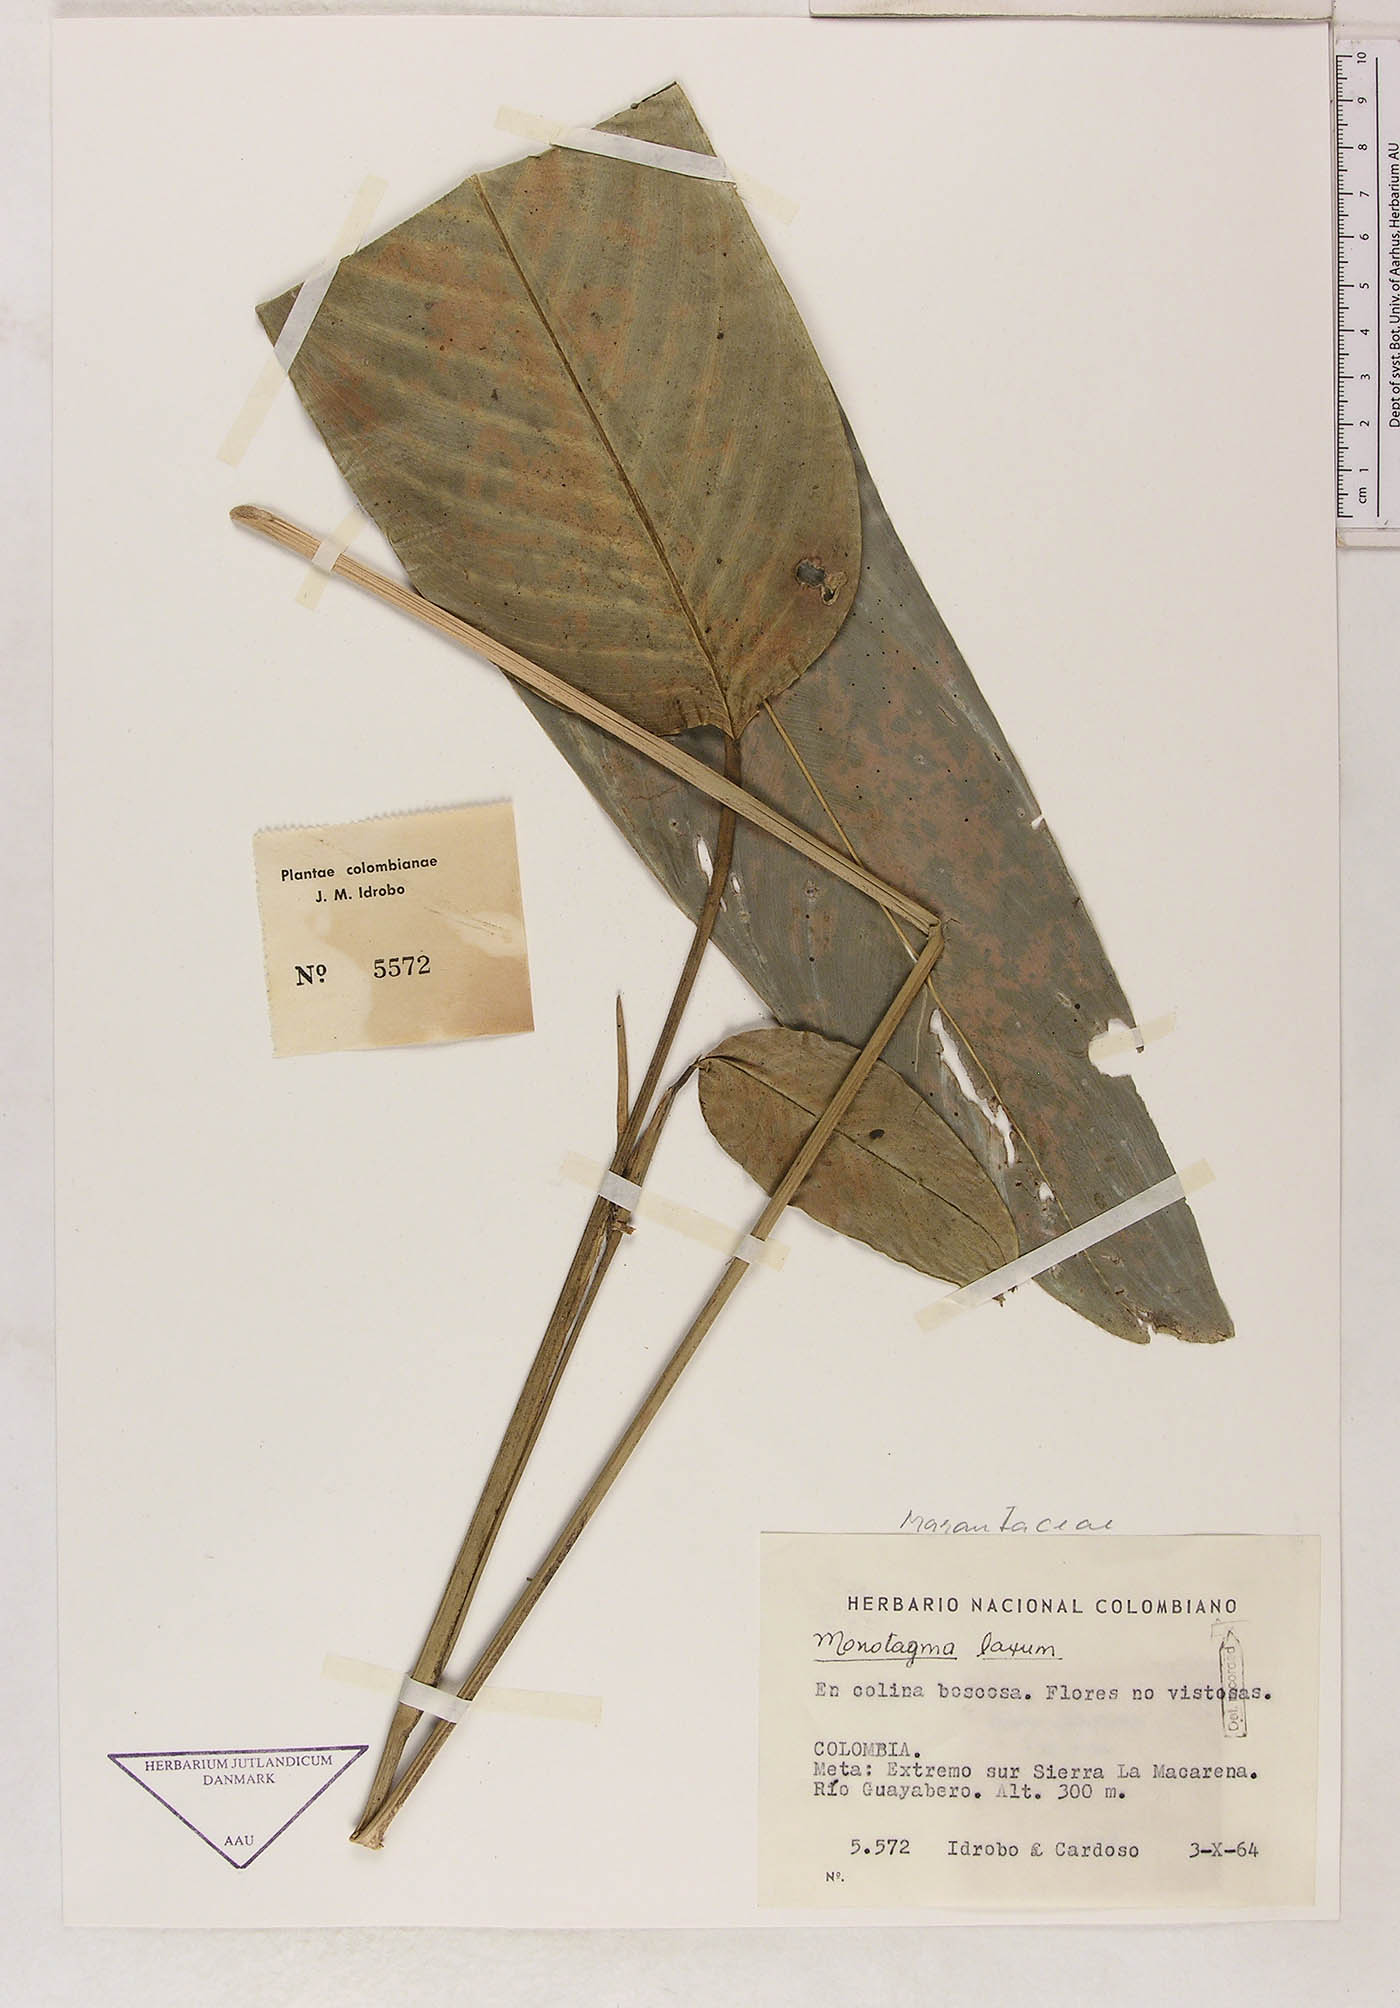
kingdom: Plantae
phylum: Tracheophyta
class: Liliopsida
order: Zingiberales
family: Marantaceae
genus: Monotagma
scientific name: Monotagma laxum
